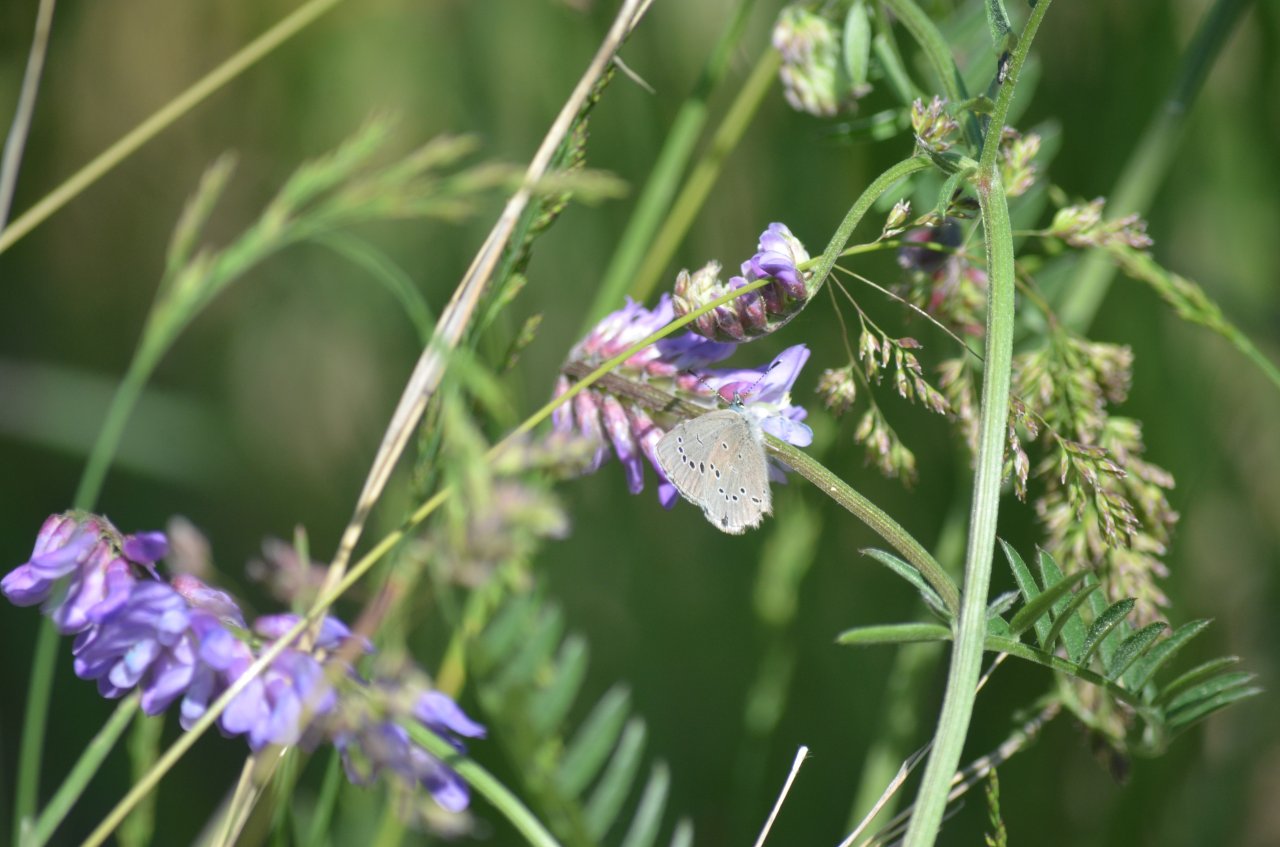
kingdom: Animalia
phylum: Arthropoda
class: Insecta
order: Lepidoptera
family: Lycaenidae
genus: Glaucopsyche
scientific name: Glaucopsyche lygdamus
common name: Silvery Blue
